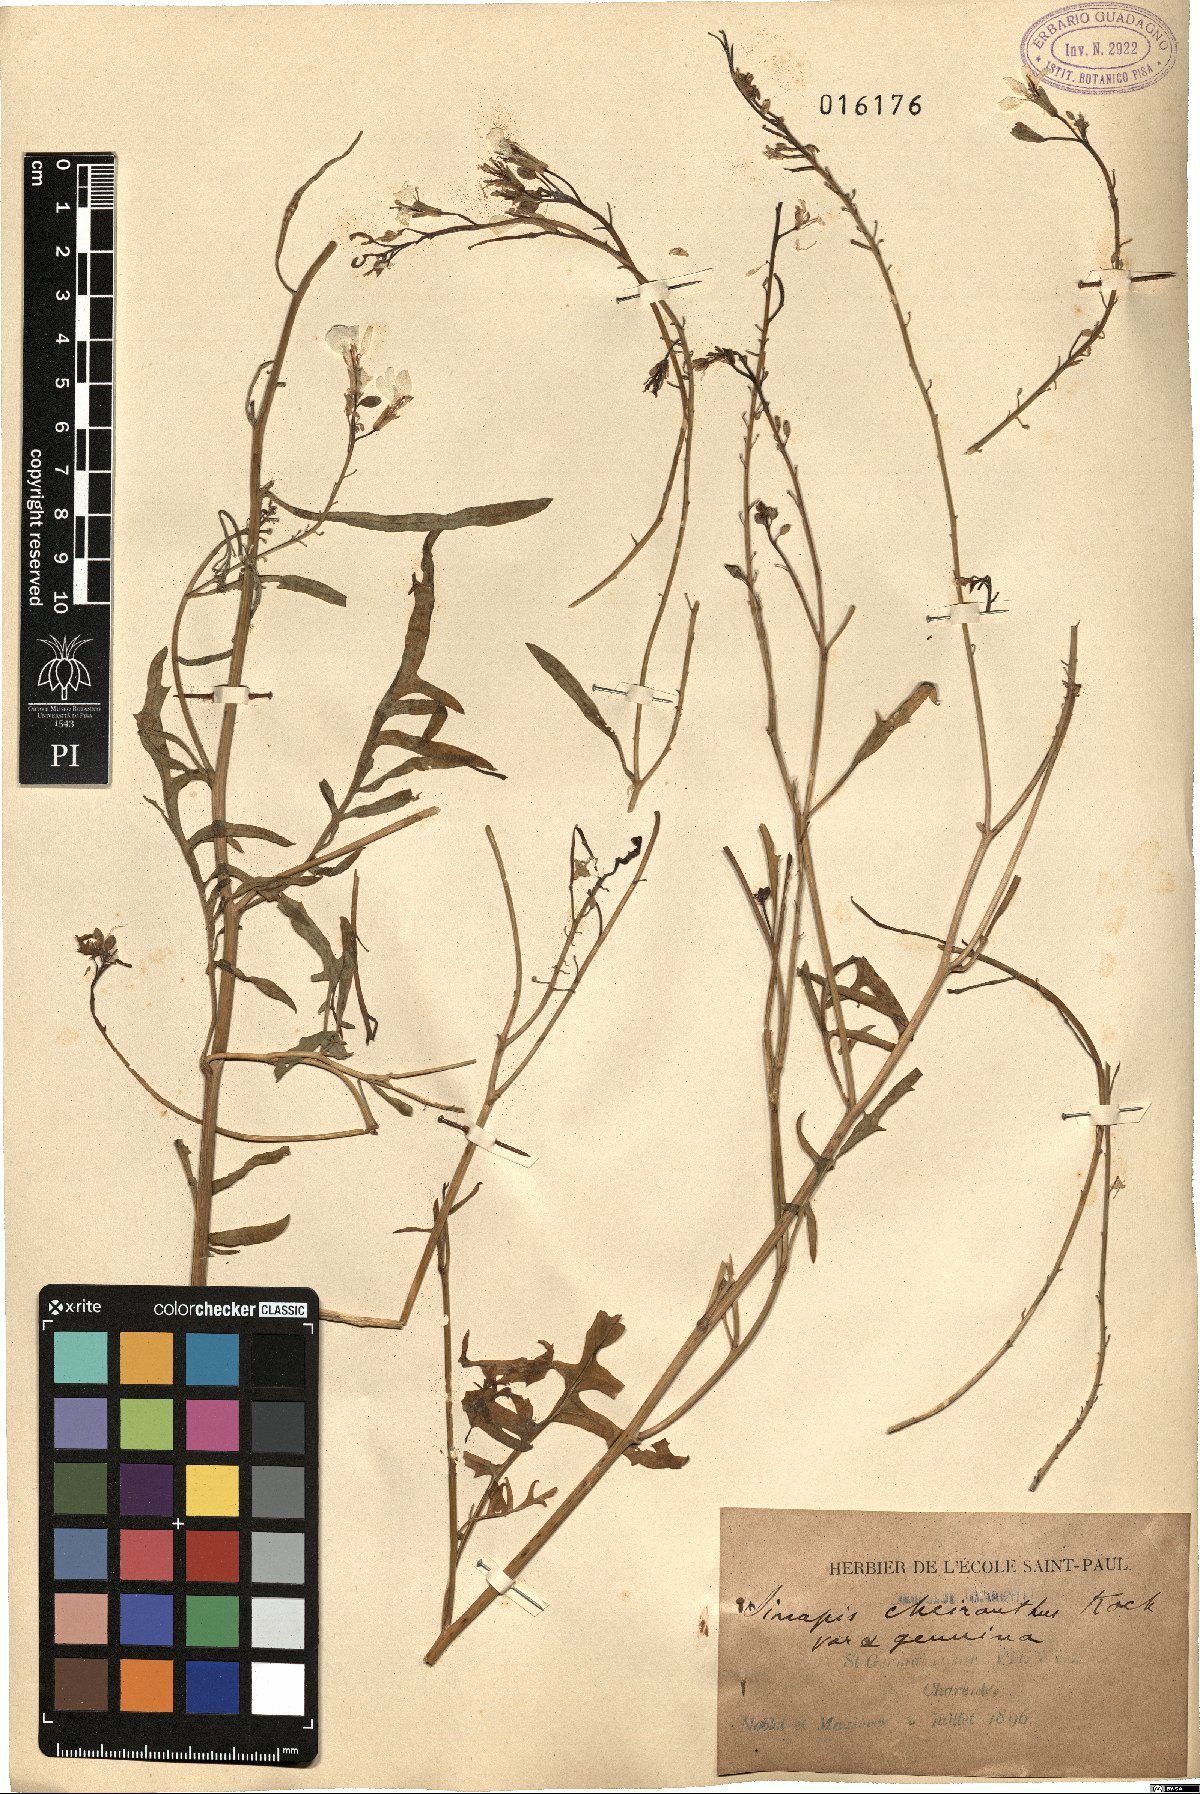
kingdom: Plantae
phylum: Tracheophyta
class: Magnoliopsida
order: Brassicales
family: Brassicaceae
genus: Coincya
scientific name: Coincya monensis
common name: Star-mustard
